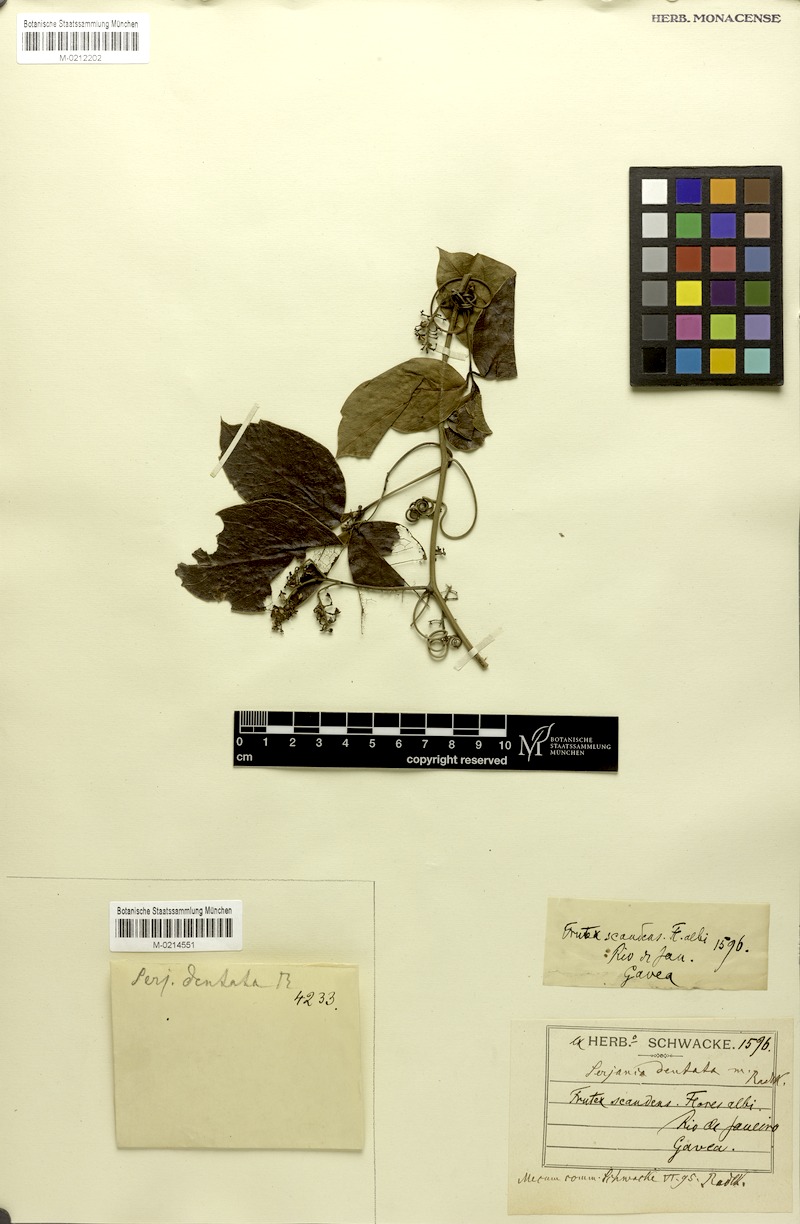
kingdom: Plantae
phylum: Tracheophyta
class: Magnoliopsida
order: Sapindales
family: Sapindaceae
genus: Serjania
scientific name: Serjania dentata
